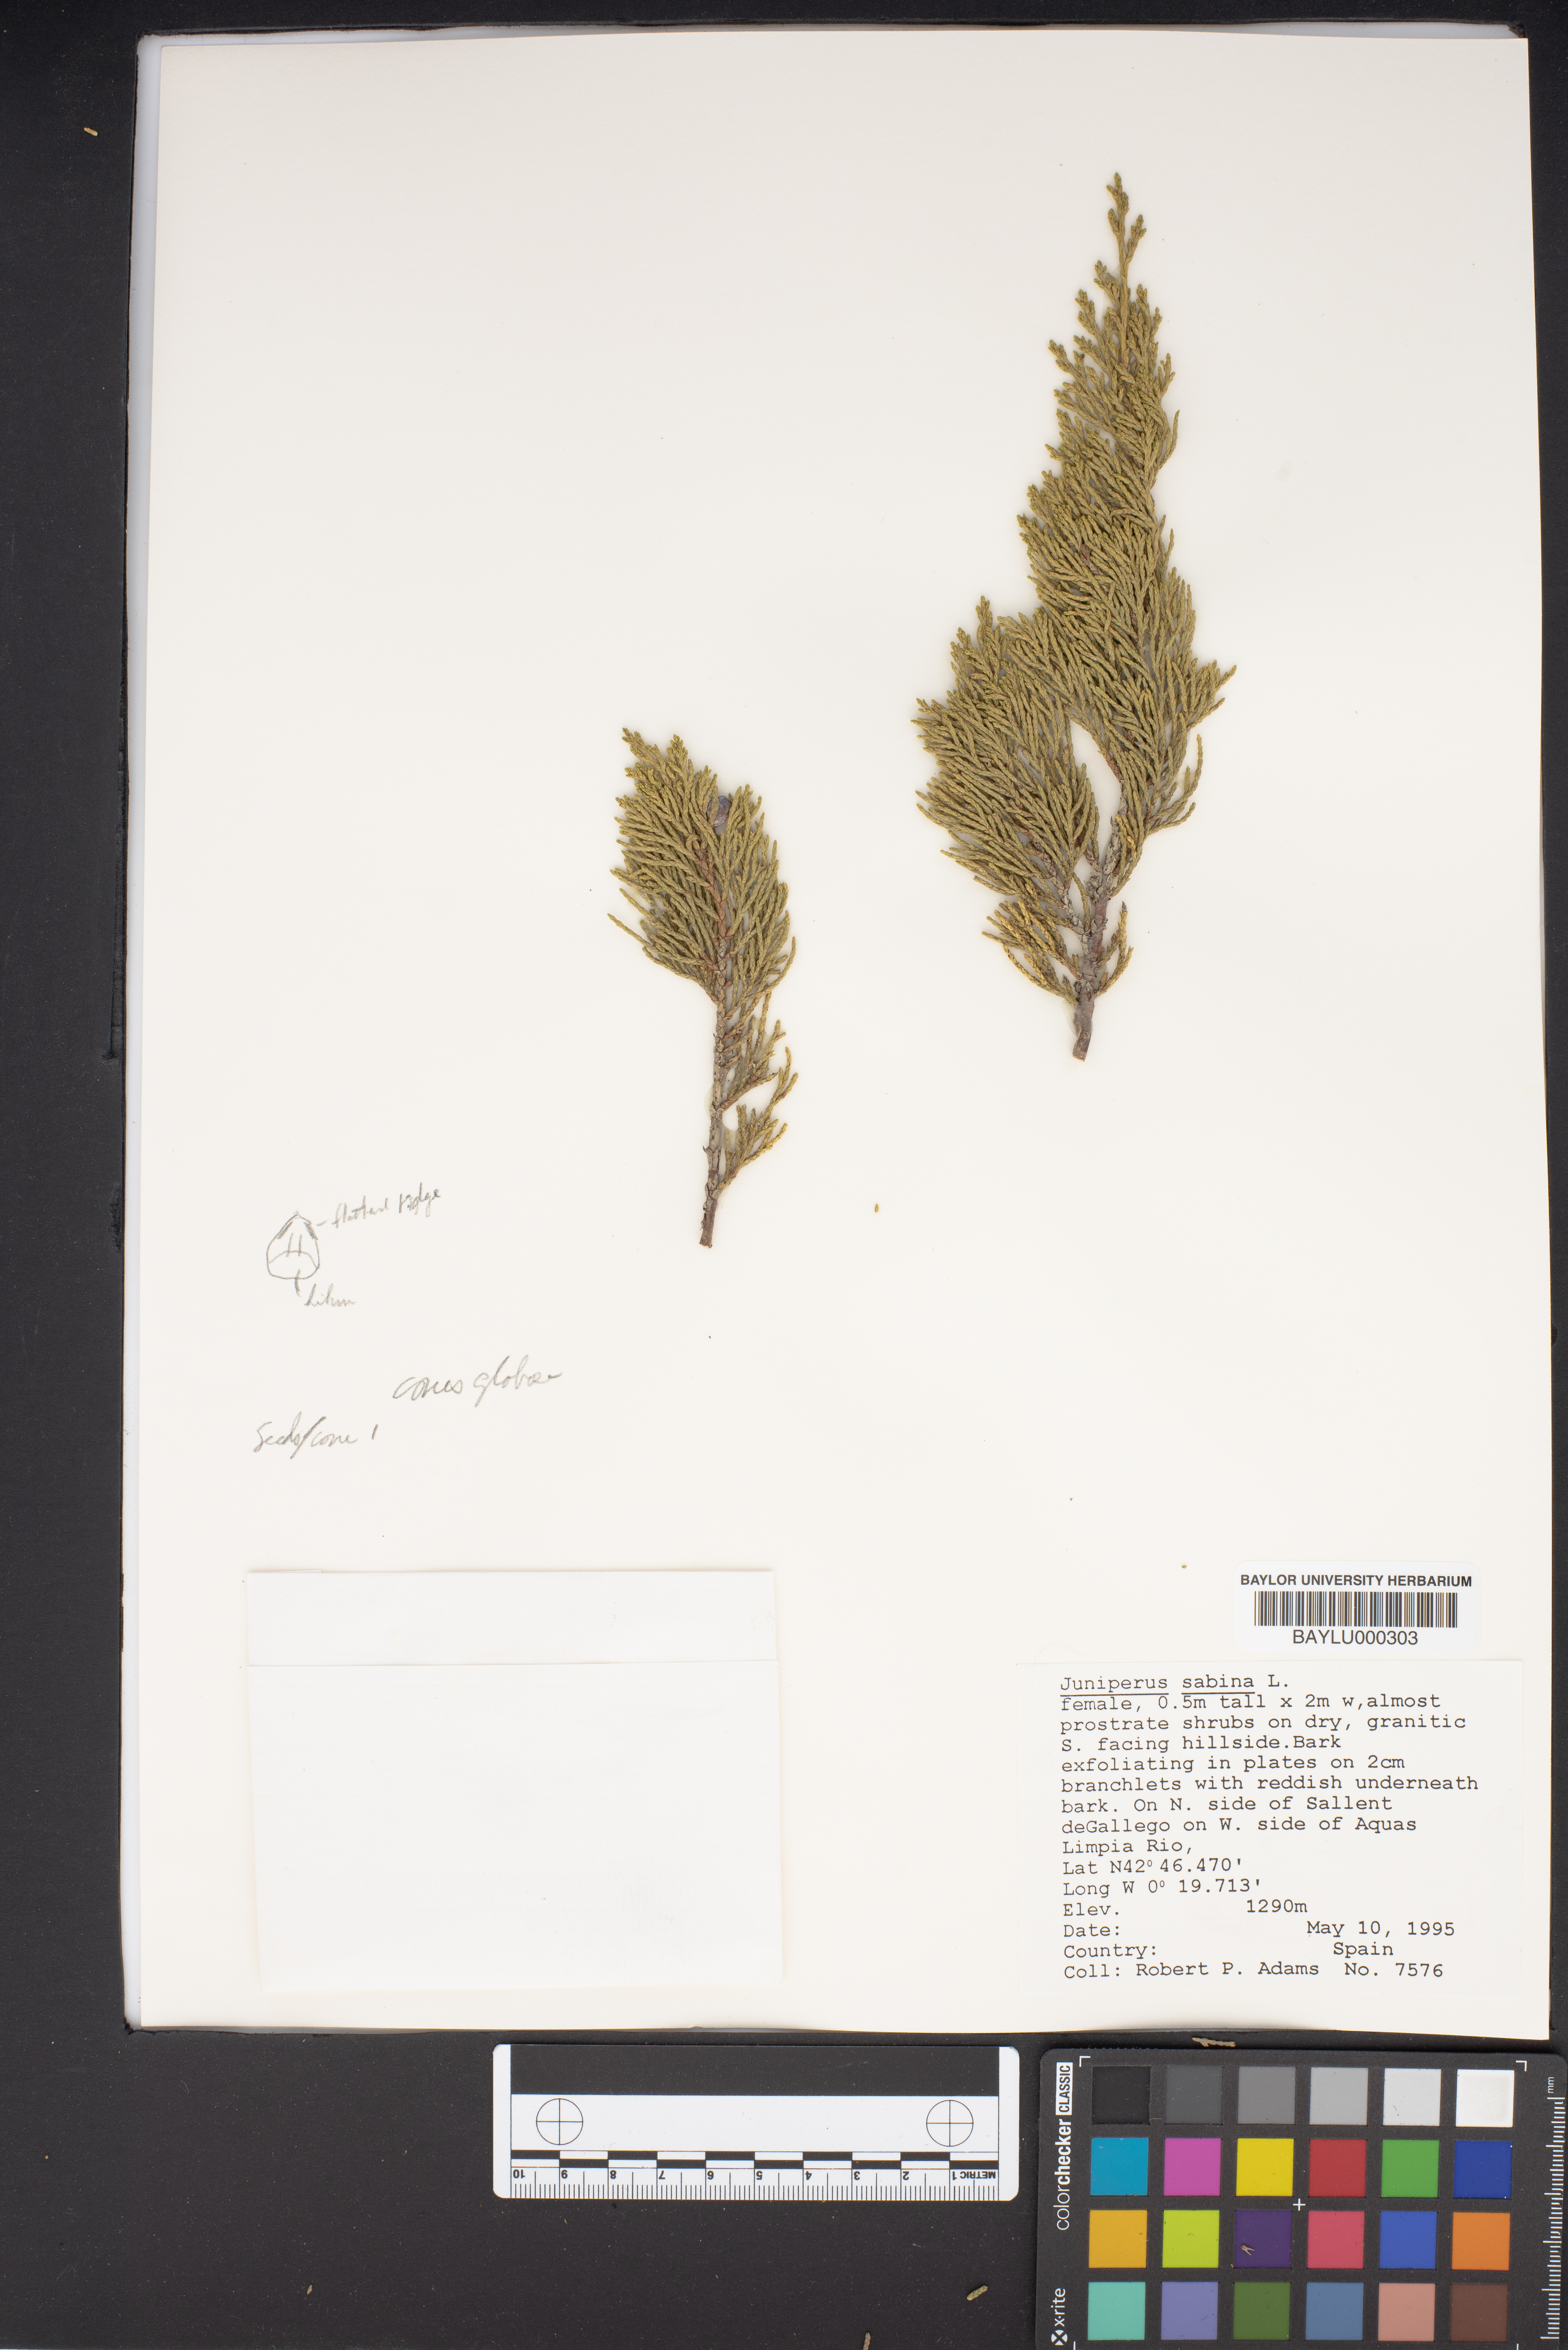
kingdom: Plantae
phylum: Tracheophyta
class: Pinopsida
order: Pinales
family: Cupressaceae
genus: Juniperus
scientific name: Juniperus sabina
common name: Savin
